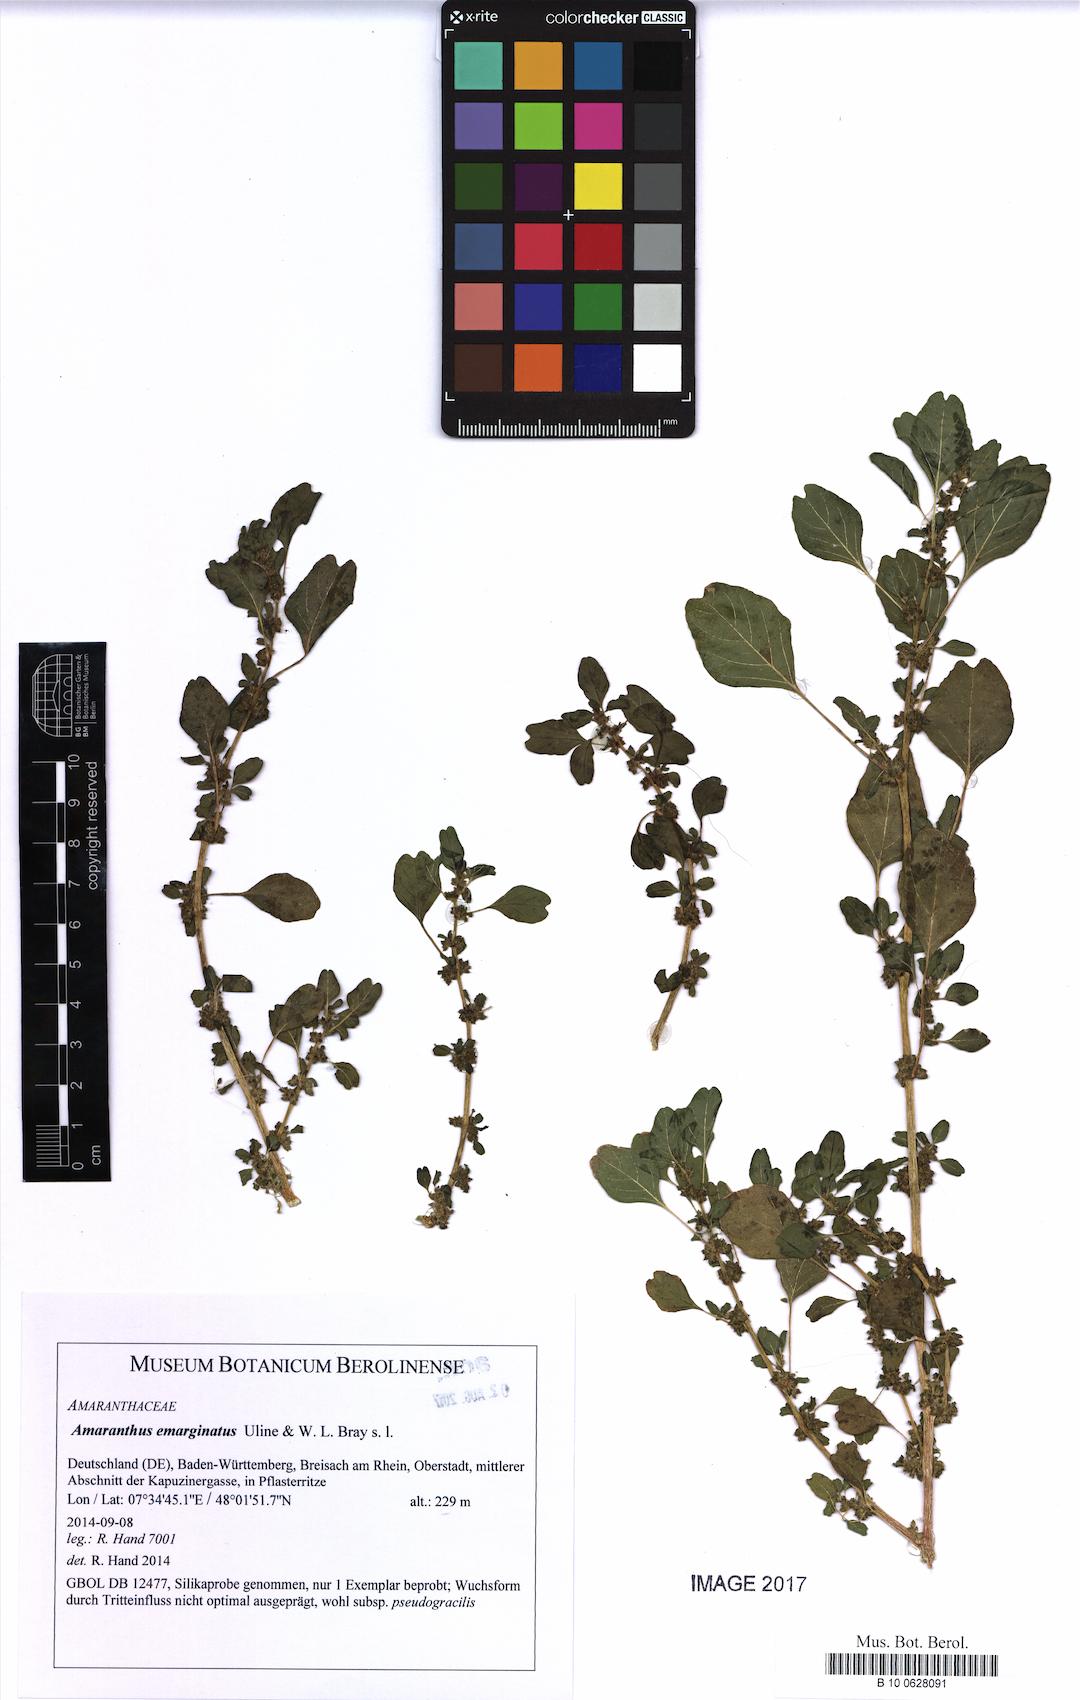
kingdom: Plantae
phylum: Tracheophyta
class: Magnoliopsida
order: Caryophyllales
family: Amaranthaceae
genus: Amaranthus
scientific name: Amaranthus emarginatus
